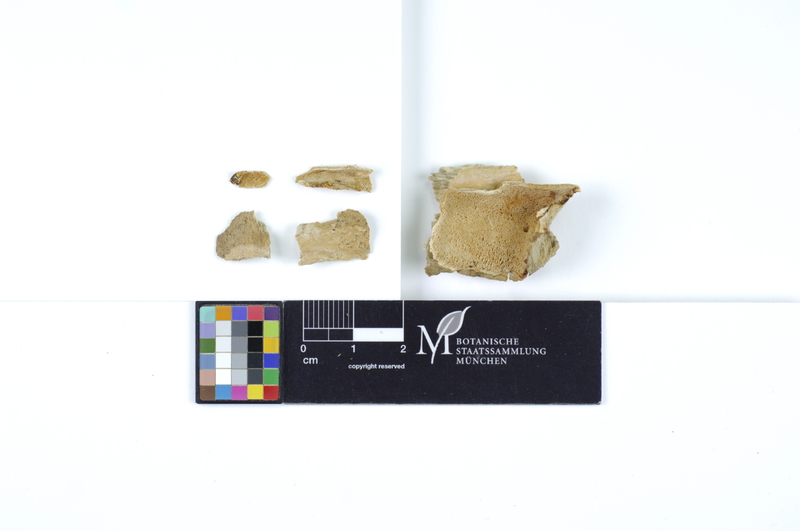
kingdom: Fungi
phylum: Basidiomycota
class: Agaricomycetes
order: Polyporales
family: Steccherinaceae
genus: Antrodiella
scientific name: Antrodiella romellii
